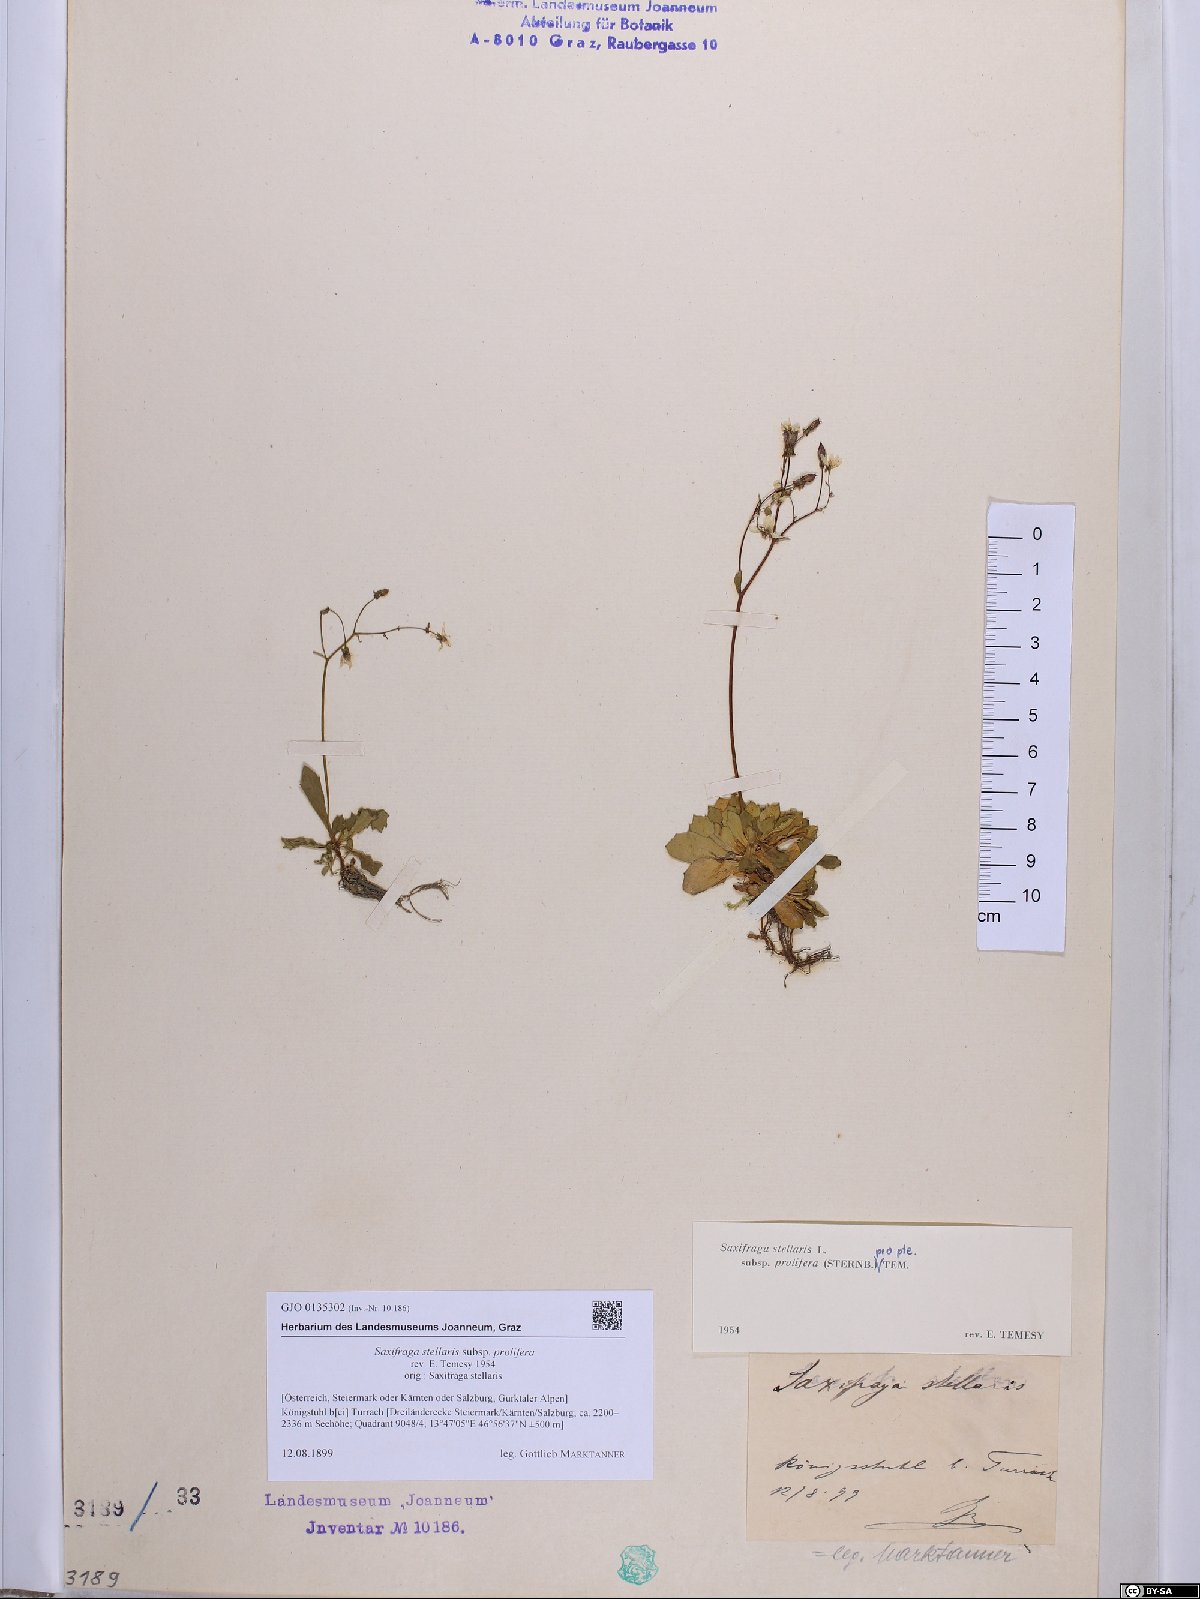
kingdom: Plantae
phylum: Tracheophyta
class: Magnoliopsida
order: Saxifragales
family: Saxifragaceae
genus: Micranthes
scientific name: Micranthes stellaris
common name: Starry saxifrage
